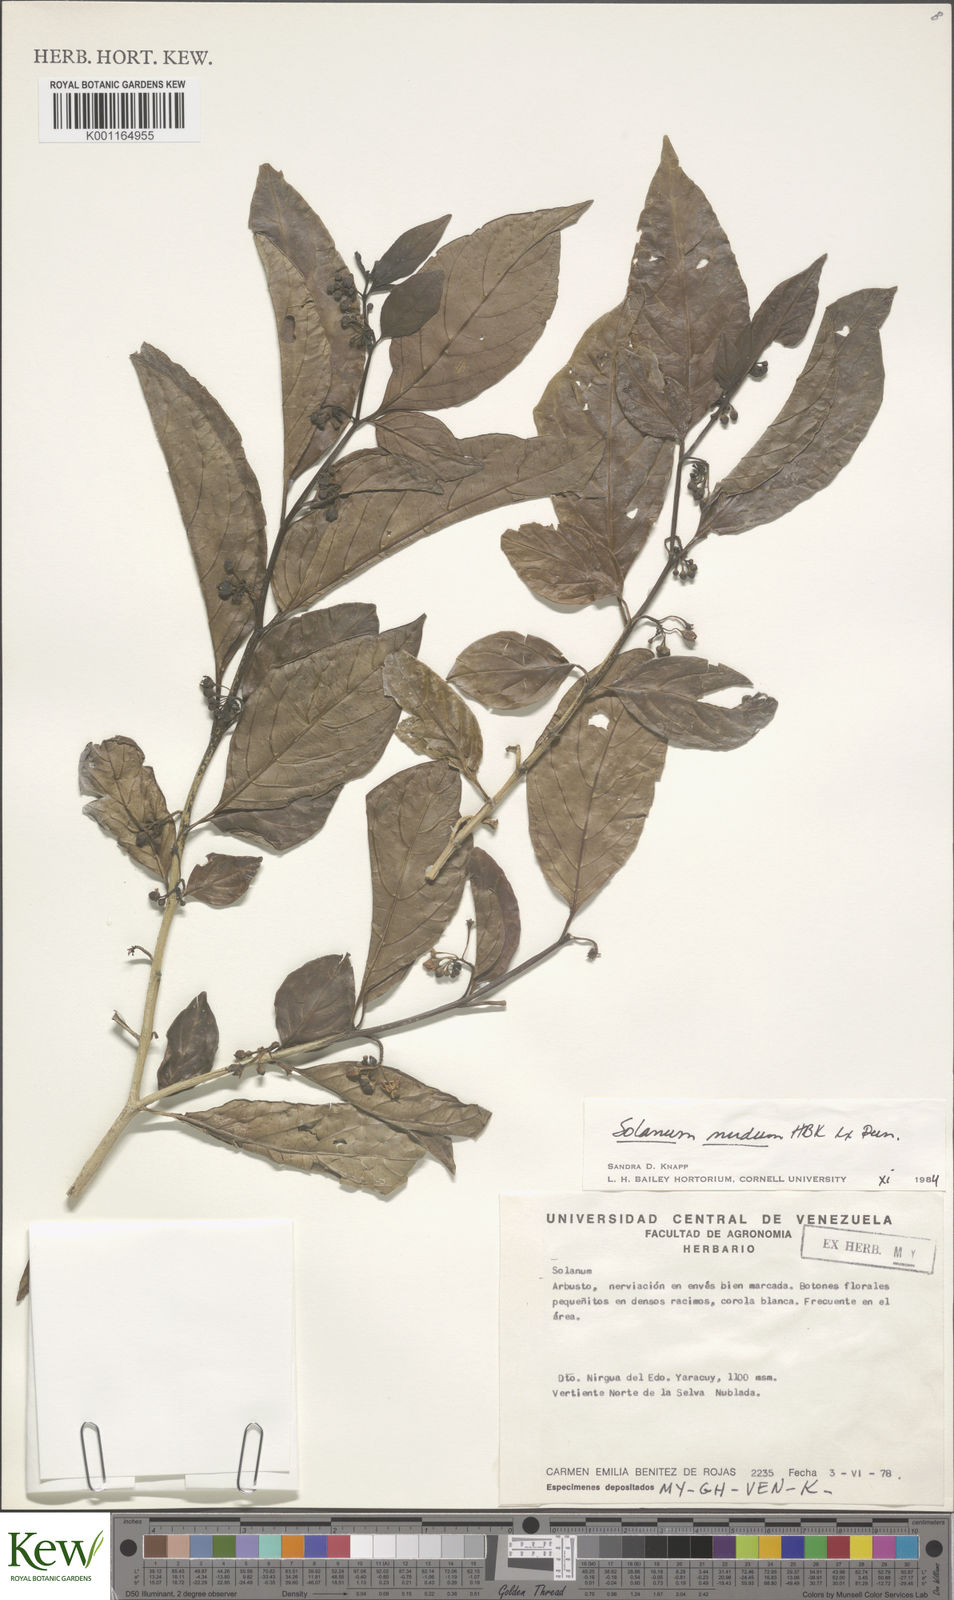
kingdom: Plantae
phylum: Tracheophyta
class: Magnoliopsida
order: Solanales
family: Solanaceae
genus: Solanum
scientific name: Solanum nudum
